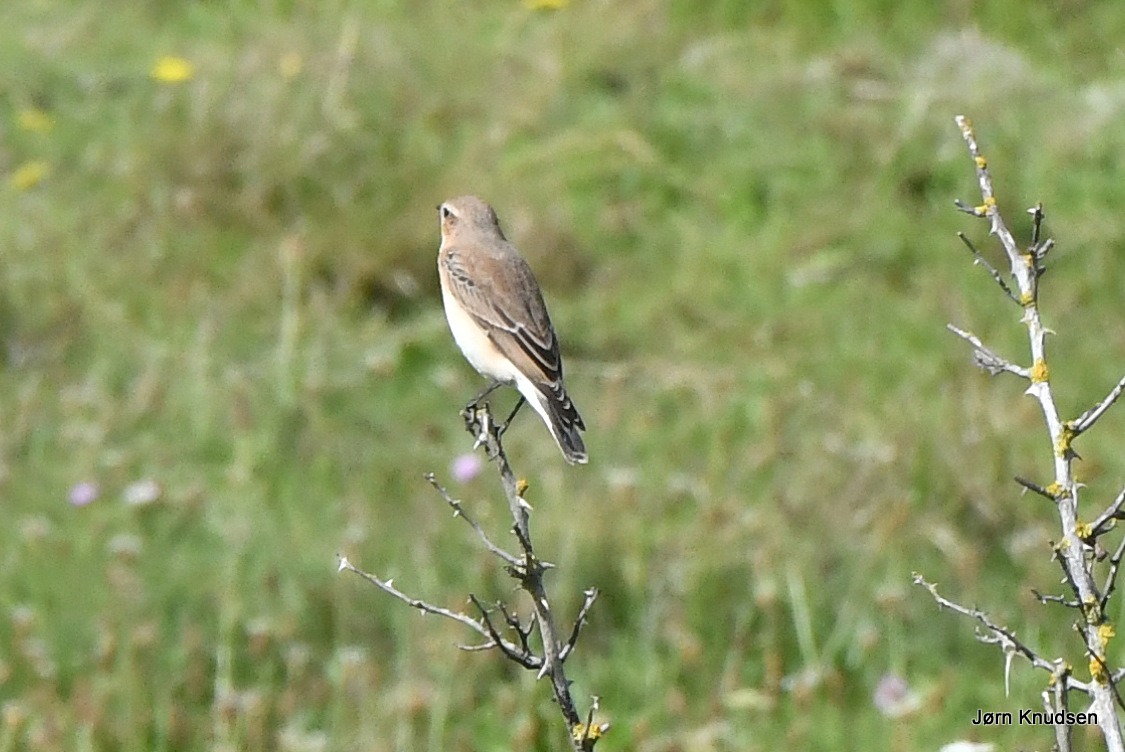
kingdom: Animalia
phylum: Chordata
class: Aves
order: Passeriformes
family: Muscicapidae
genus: Oenanthe
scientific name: Oenanthe oenanthe
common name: Stenpikker
